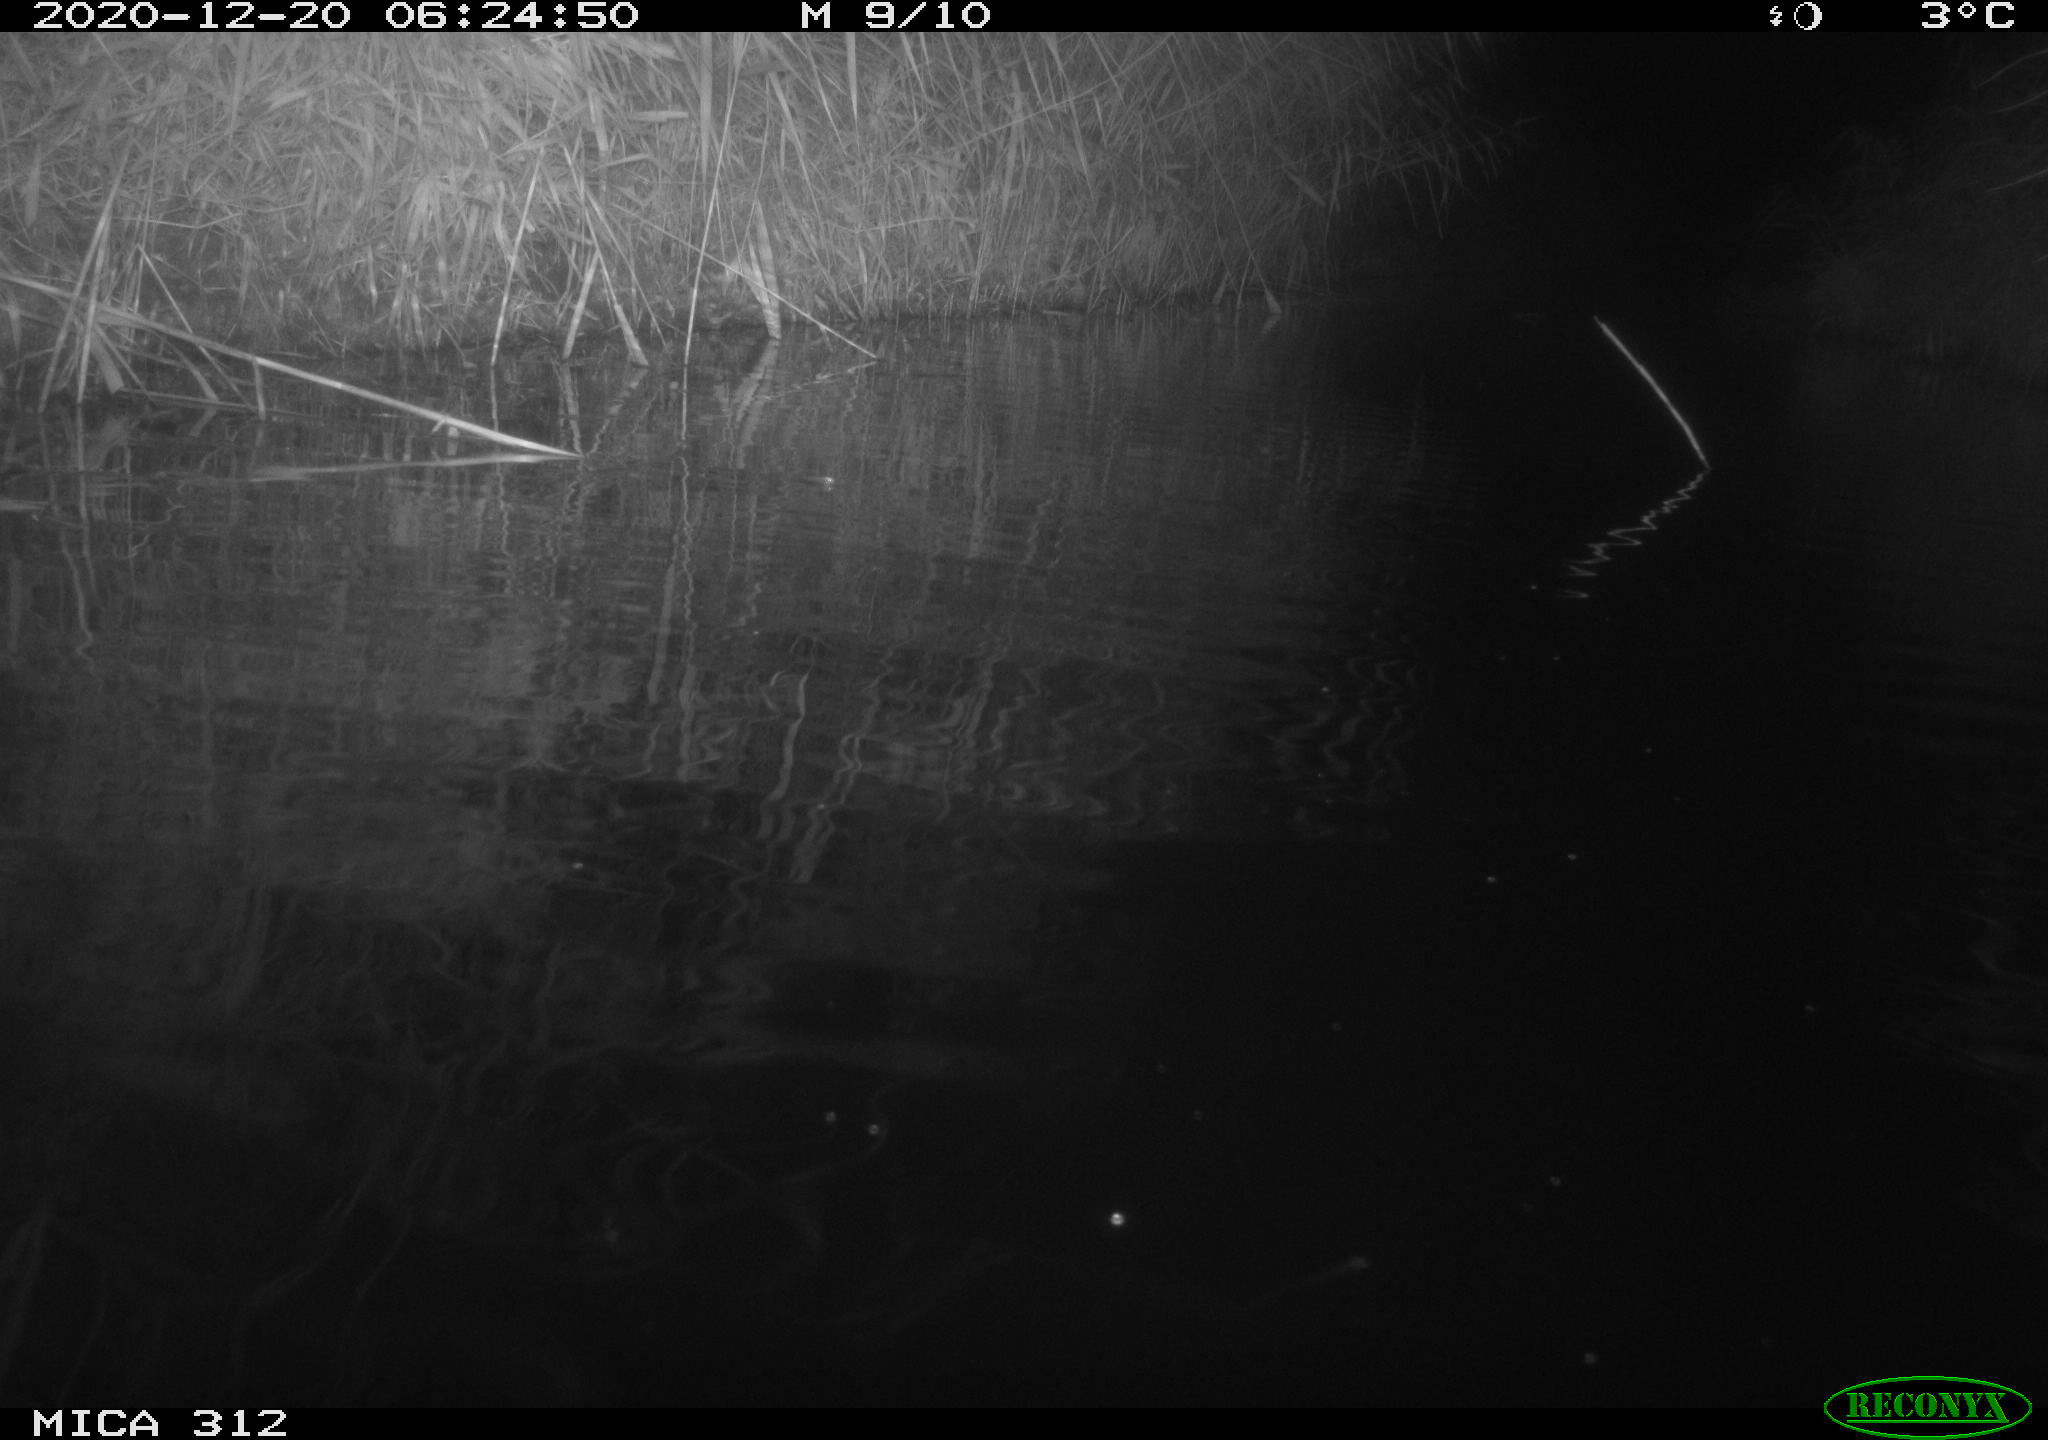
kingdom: Animalia
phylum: Chordata
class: Mammalia
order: Rodentia
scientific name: Rodentia
